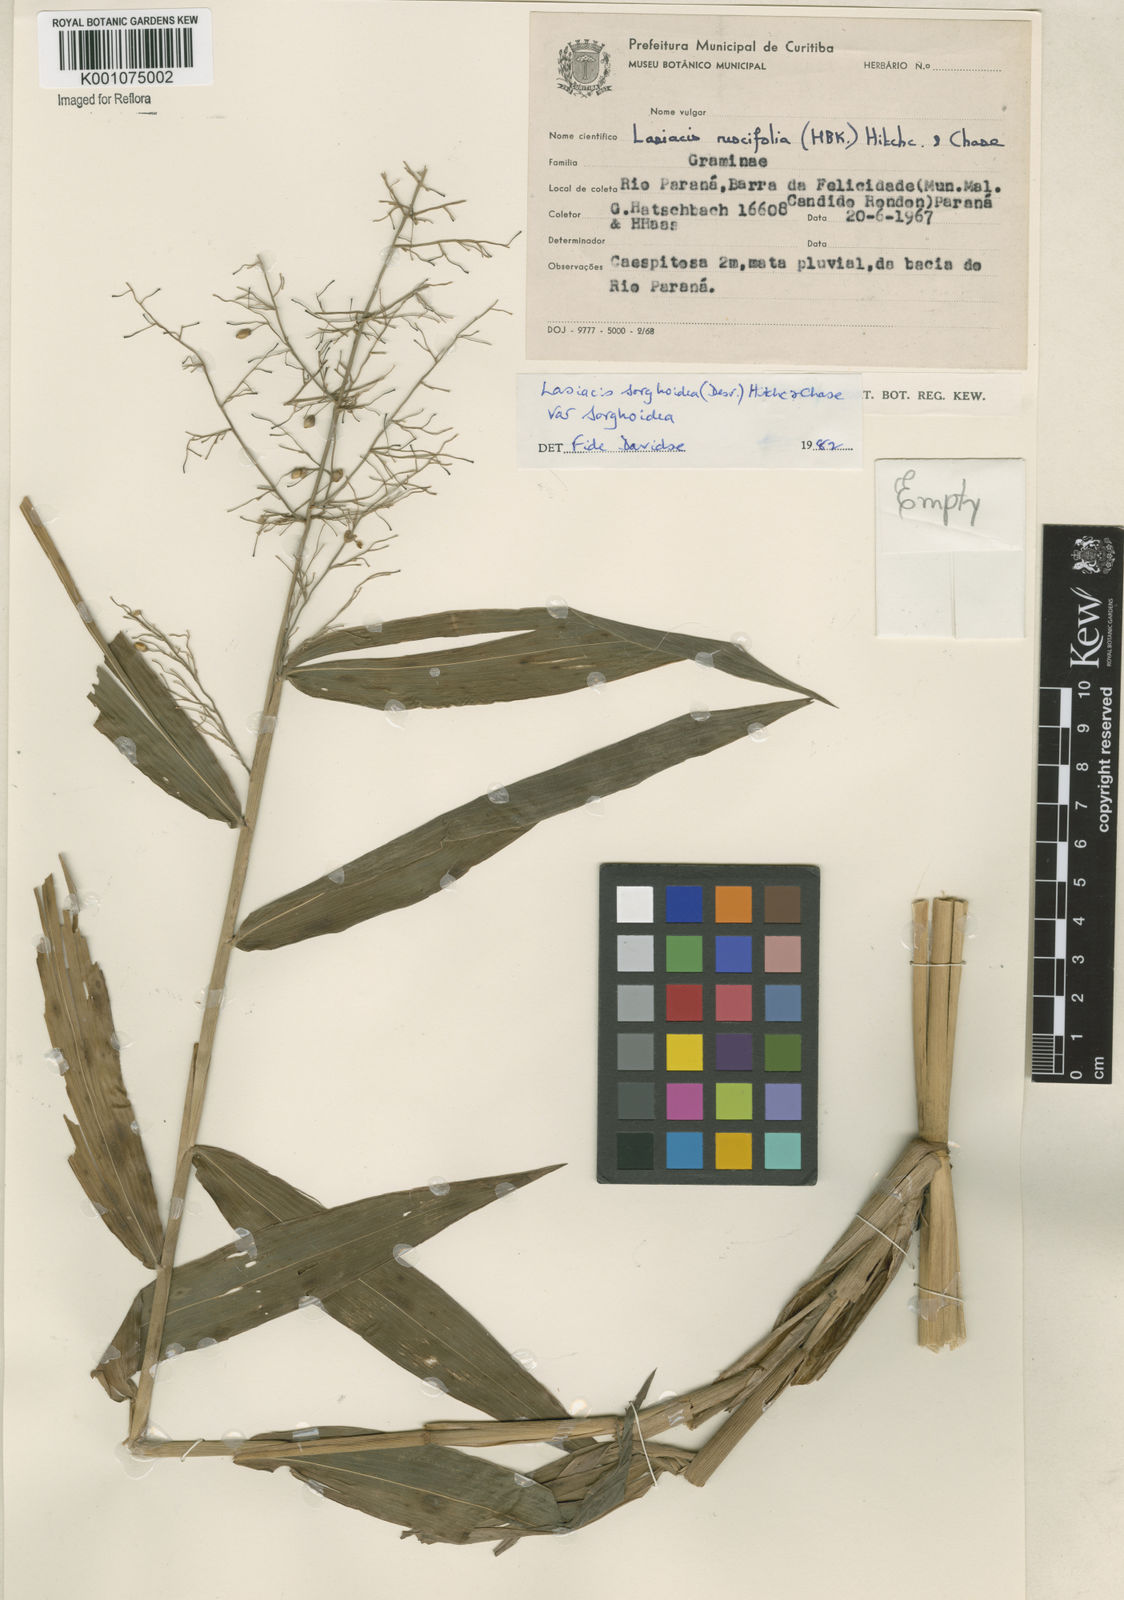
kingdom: Plantae
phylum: Tracheophyta
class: Liliopsida
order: Poales
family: Poaceae
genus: Lasiacis
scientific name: Lasiacis maculata
